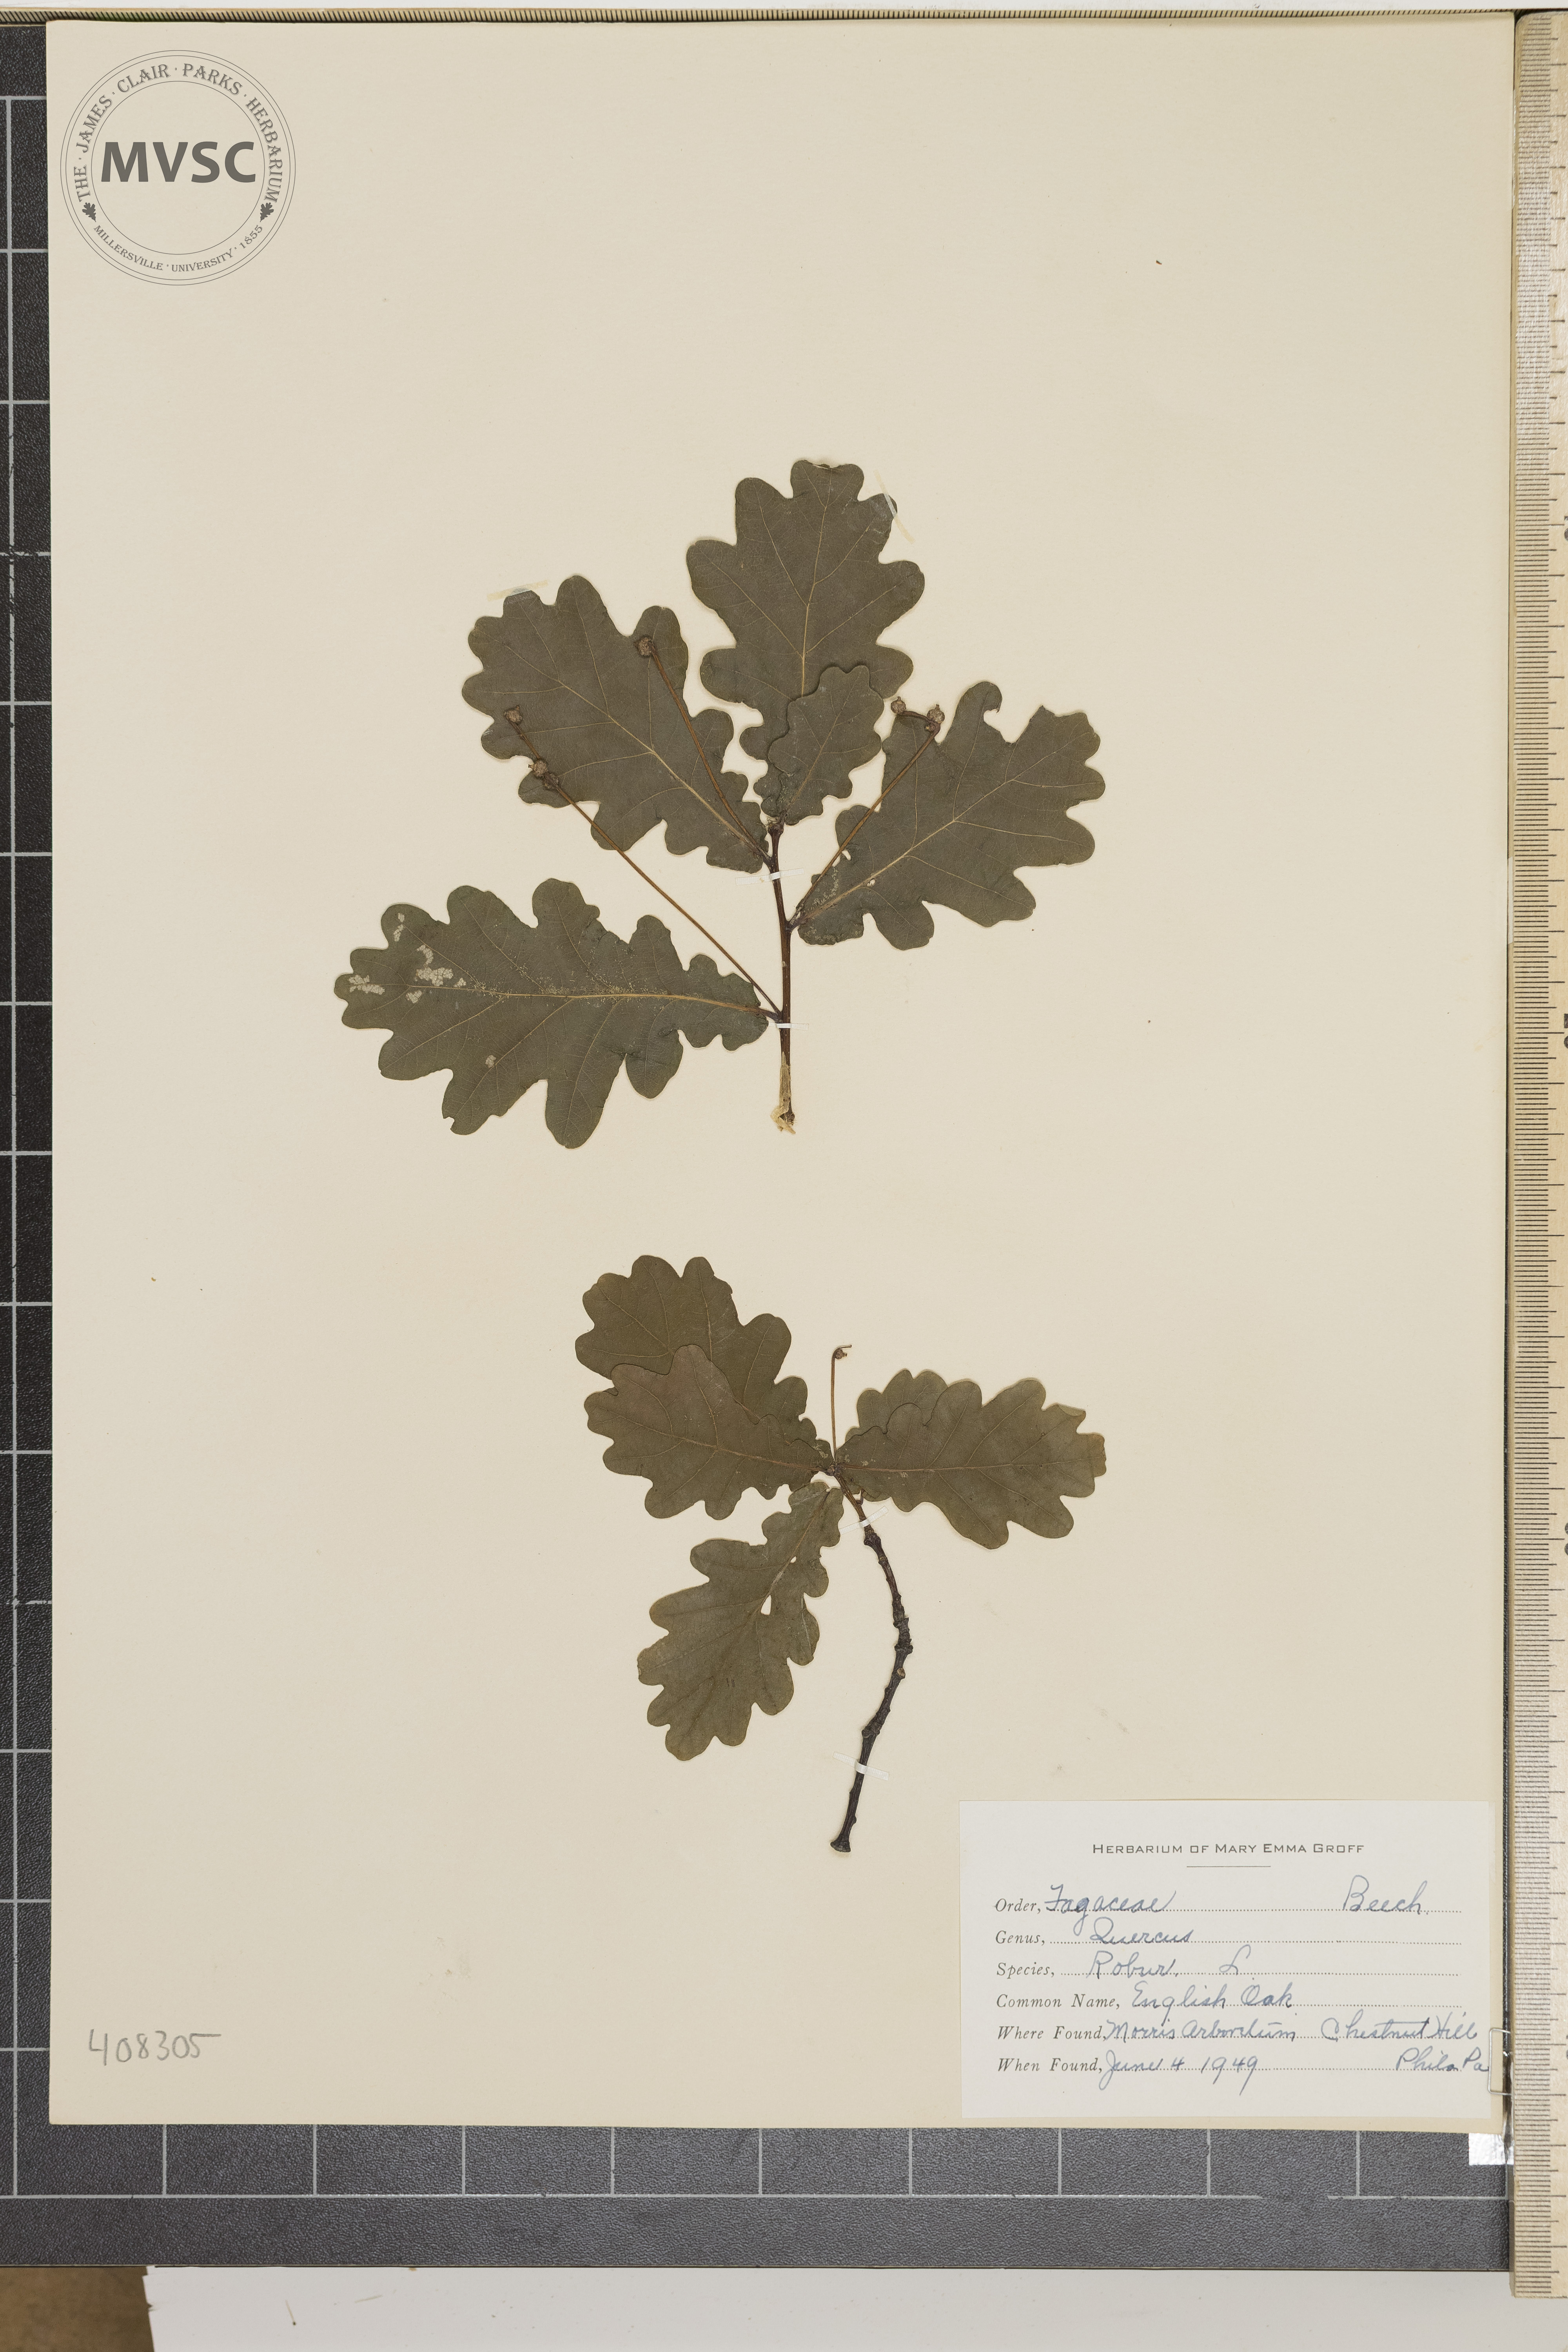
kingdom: Plantae
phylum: Tracheophyta
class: Magnoliopsida
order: Fagales
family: Fagaceae
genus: Quercus
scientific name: Quercus robur
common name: Pedunculate oak
